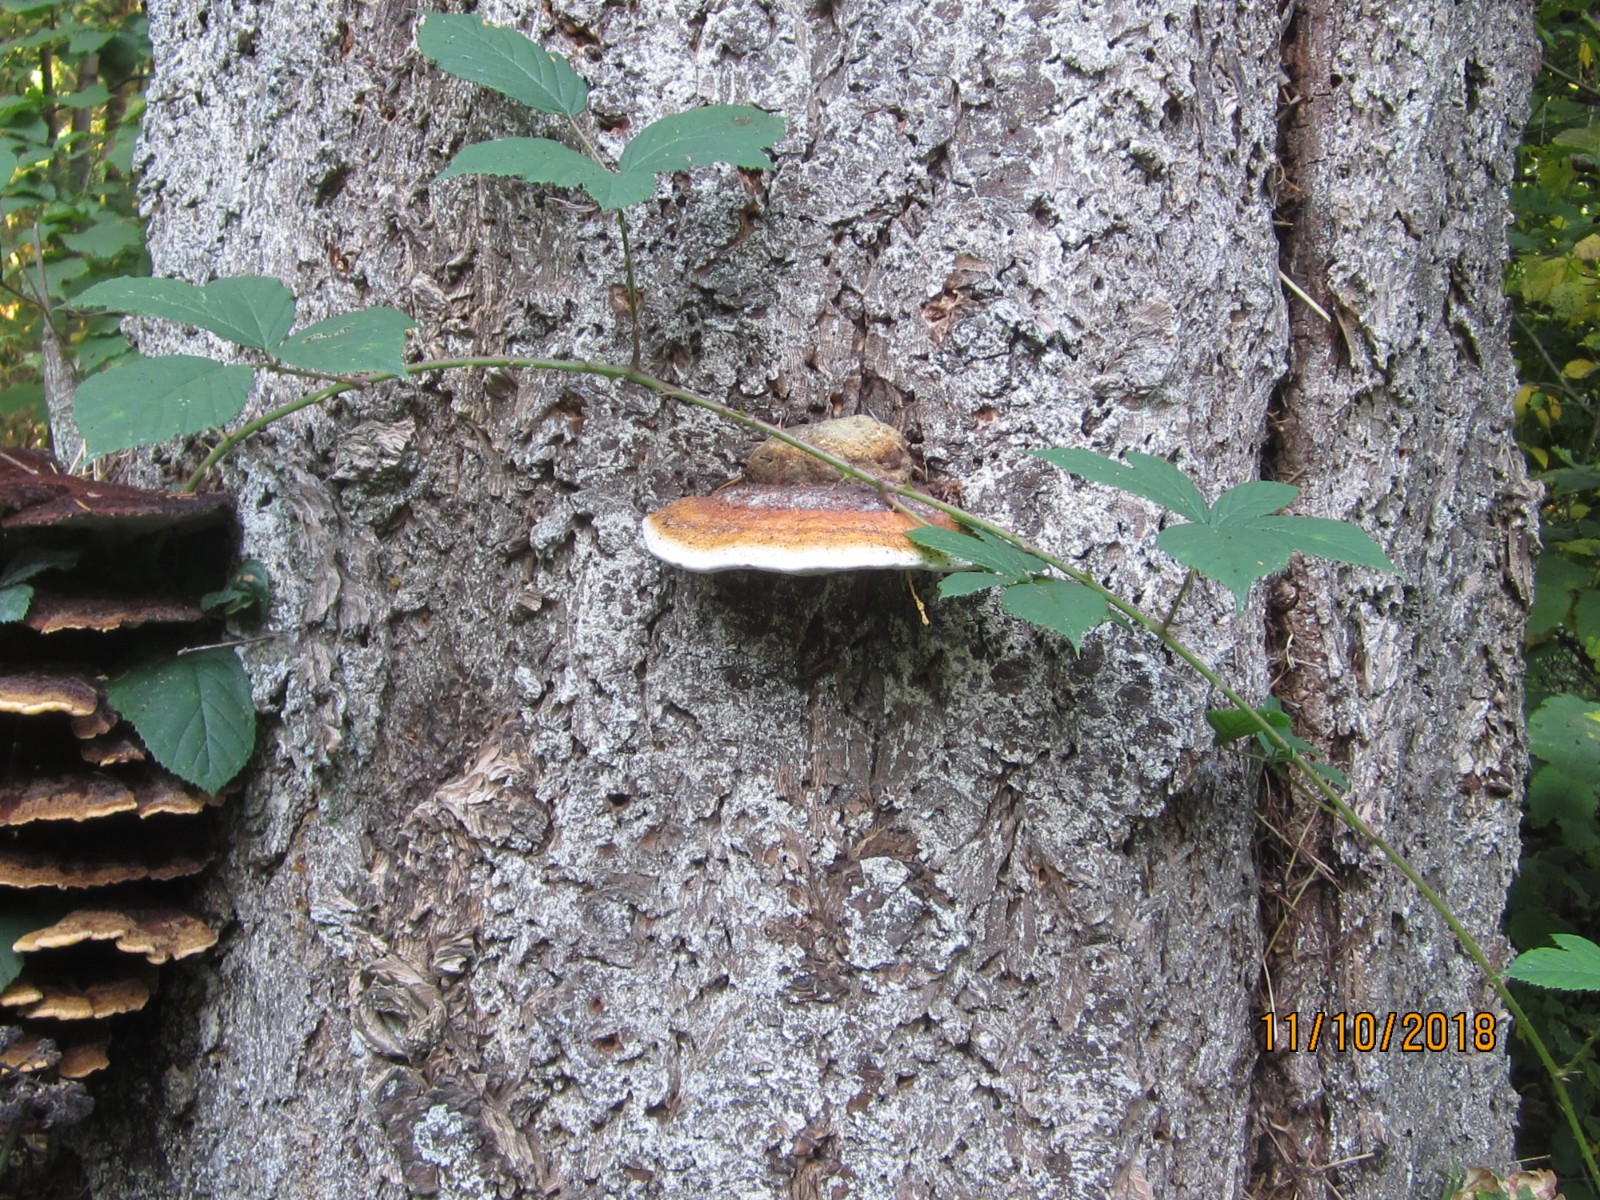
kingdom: Fungi
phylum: Basidiomycota
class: Agaricomycetes
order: Polyporales
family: Fomitopsidaceae
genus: Fomitopsis
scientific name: Fomitopsis pinicola
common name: randbæltet hovporesvamp
